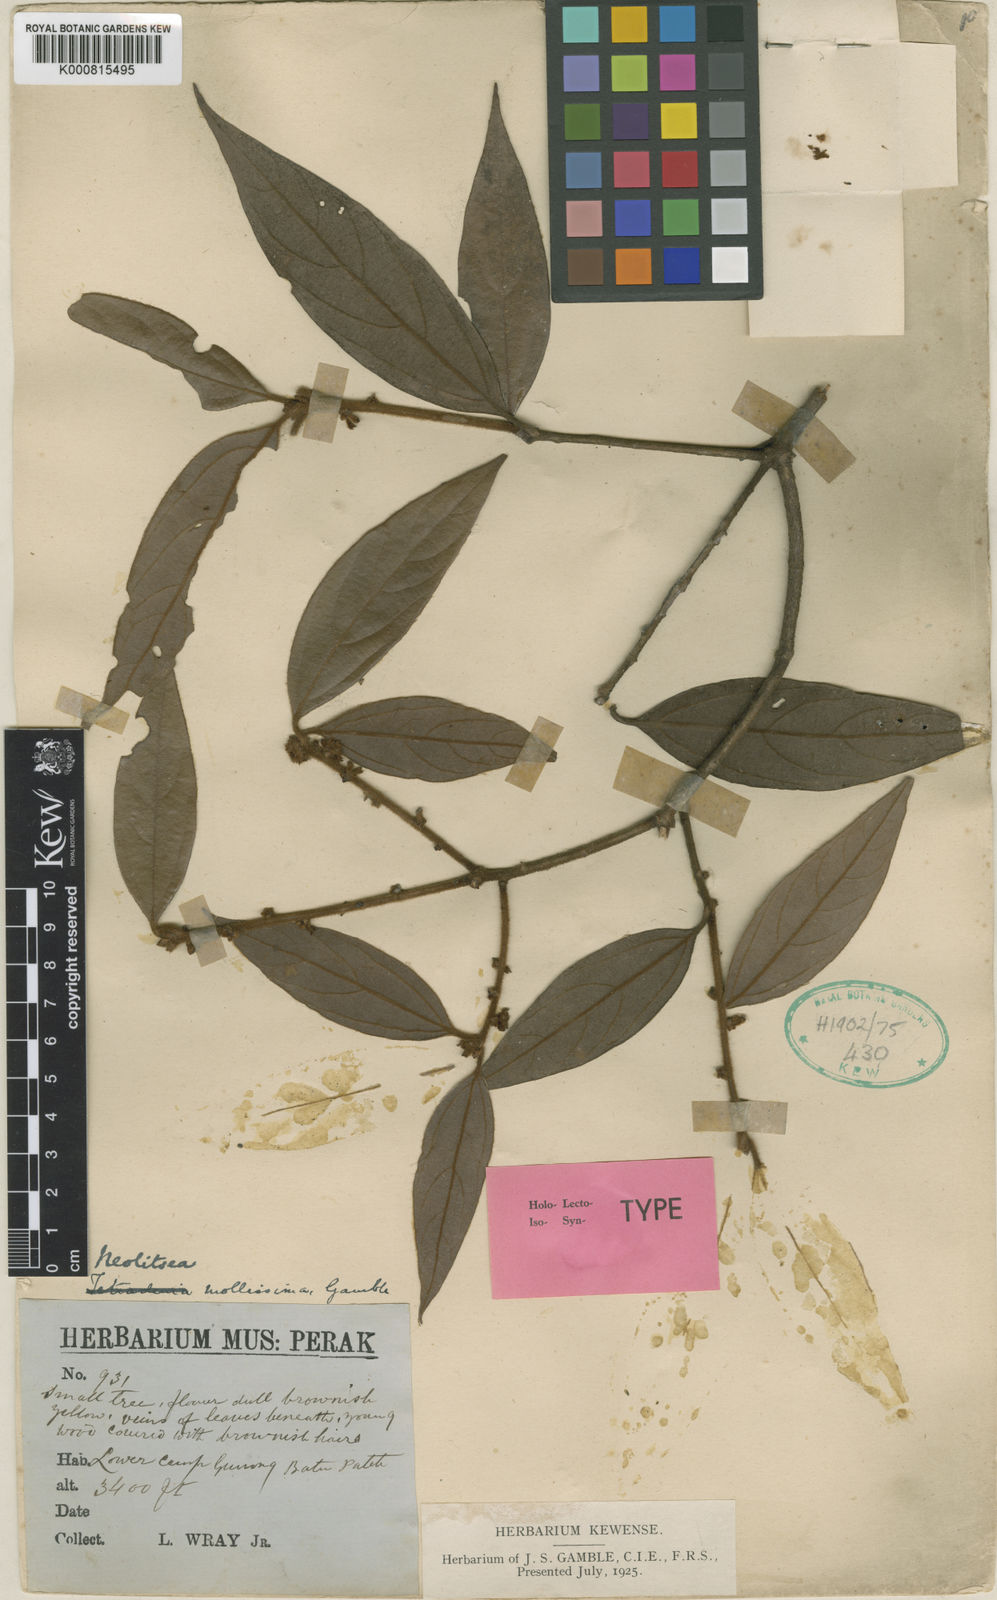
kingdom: Plantae
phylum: Tracheophyta
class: Magnoliopsida
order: Laurales
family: Lauraceae
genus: Neolitsea
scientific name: Neolitsea mollissima
